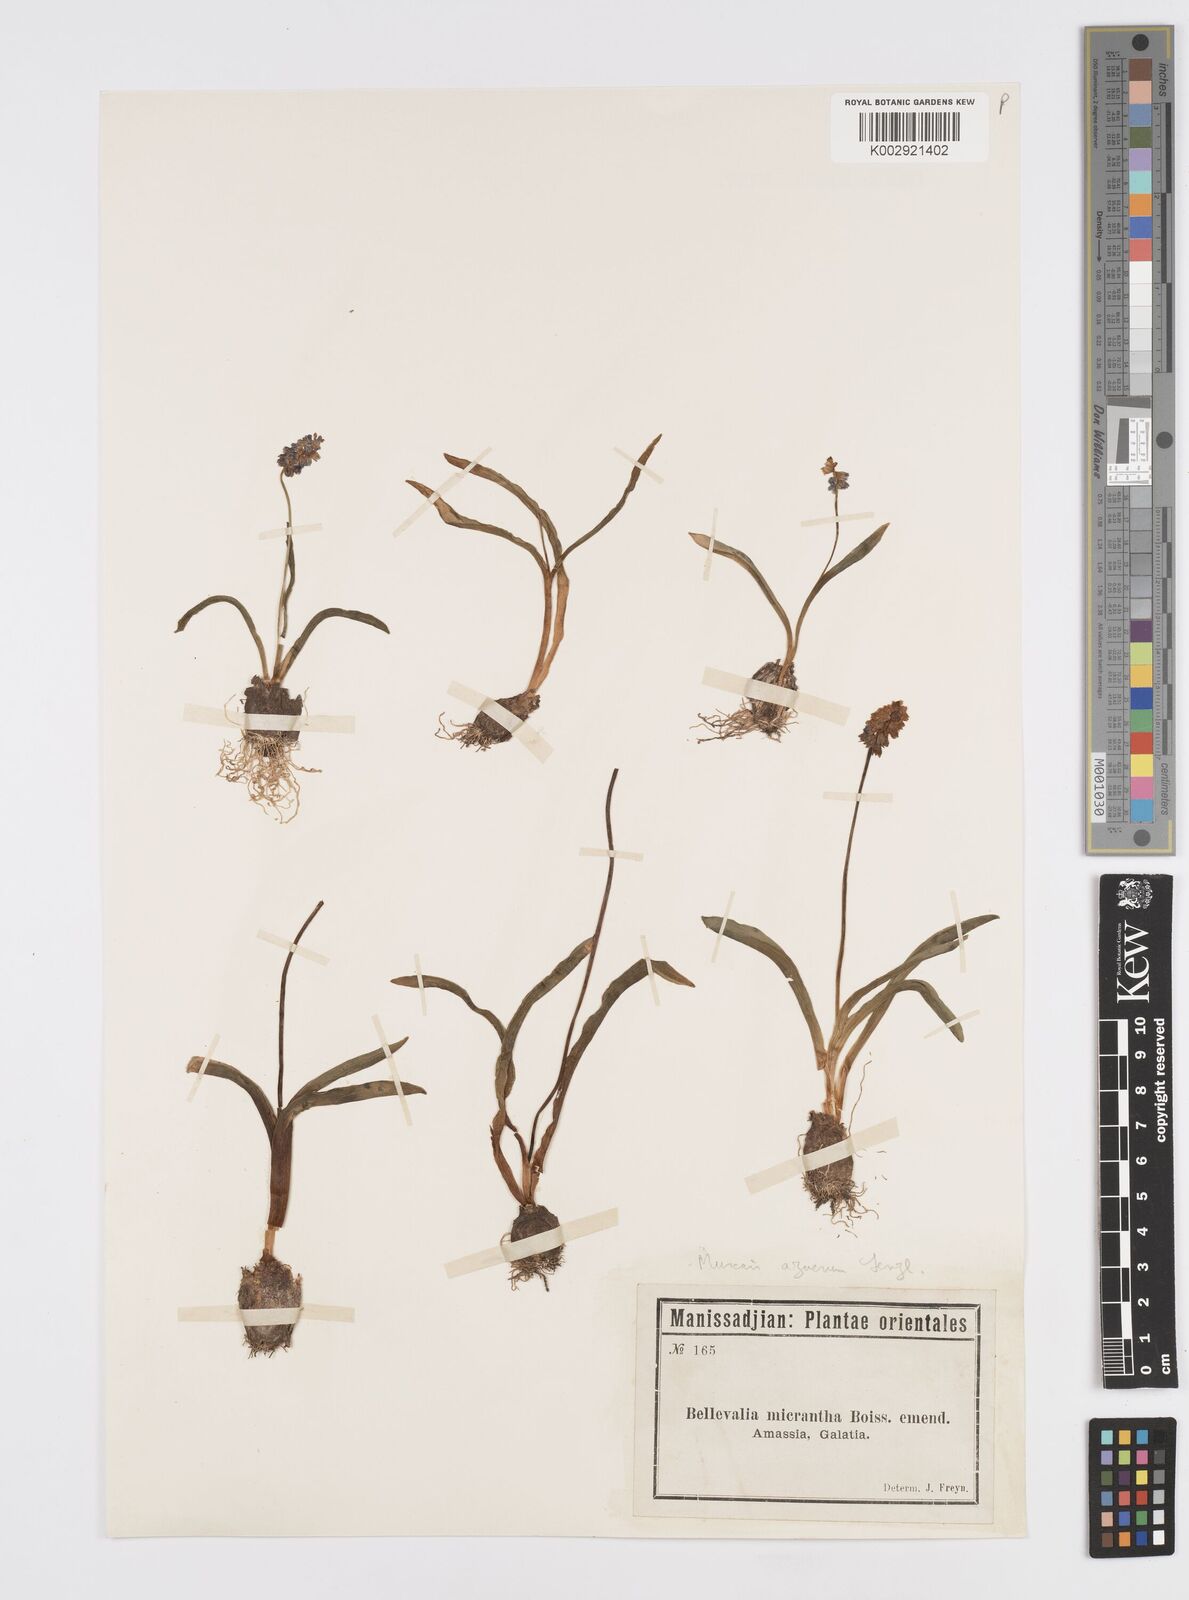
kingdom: Plantae
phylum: Tracheophyta
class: Liliopsida
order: Asparagales
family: Asparagaceae
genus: Muscari
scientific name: Muscari
